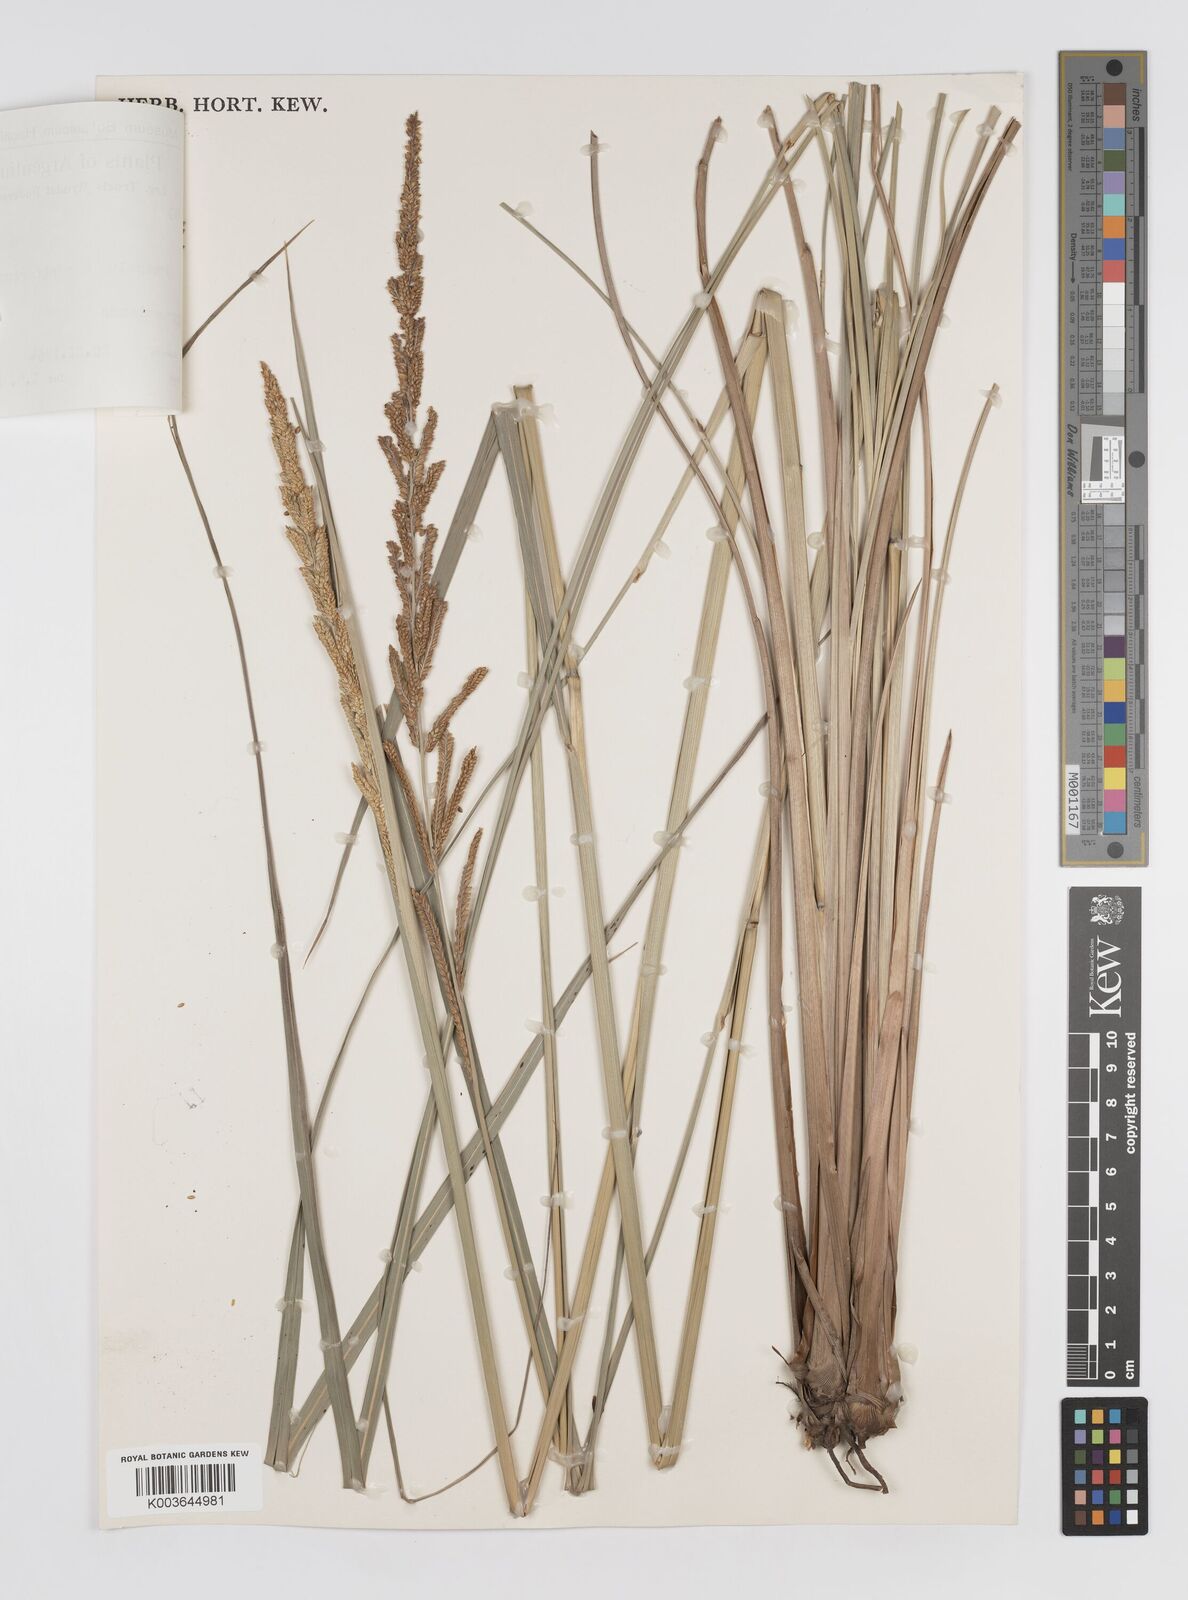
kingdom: Plantae
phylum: Tracheophyta
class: Liliopsida
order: Poales
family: Poaceae
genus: Paspalum
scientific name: Paspalum quadrifarium
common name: Tussock paspalum
